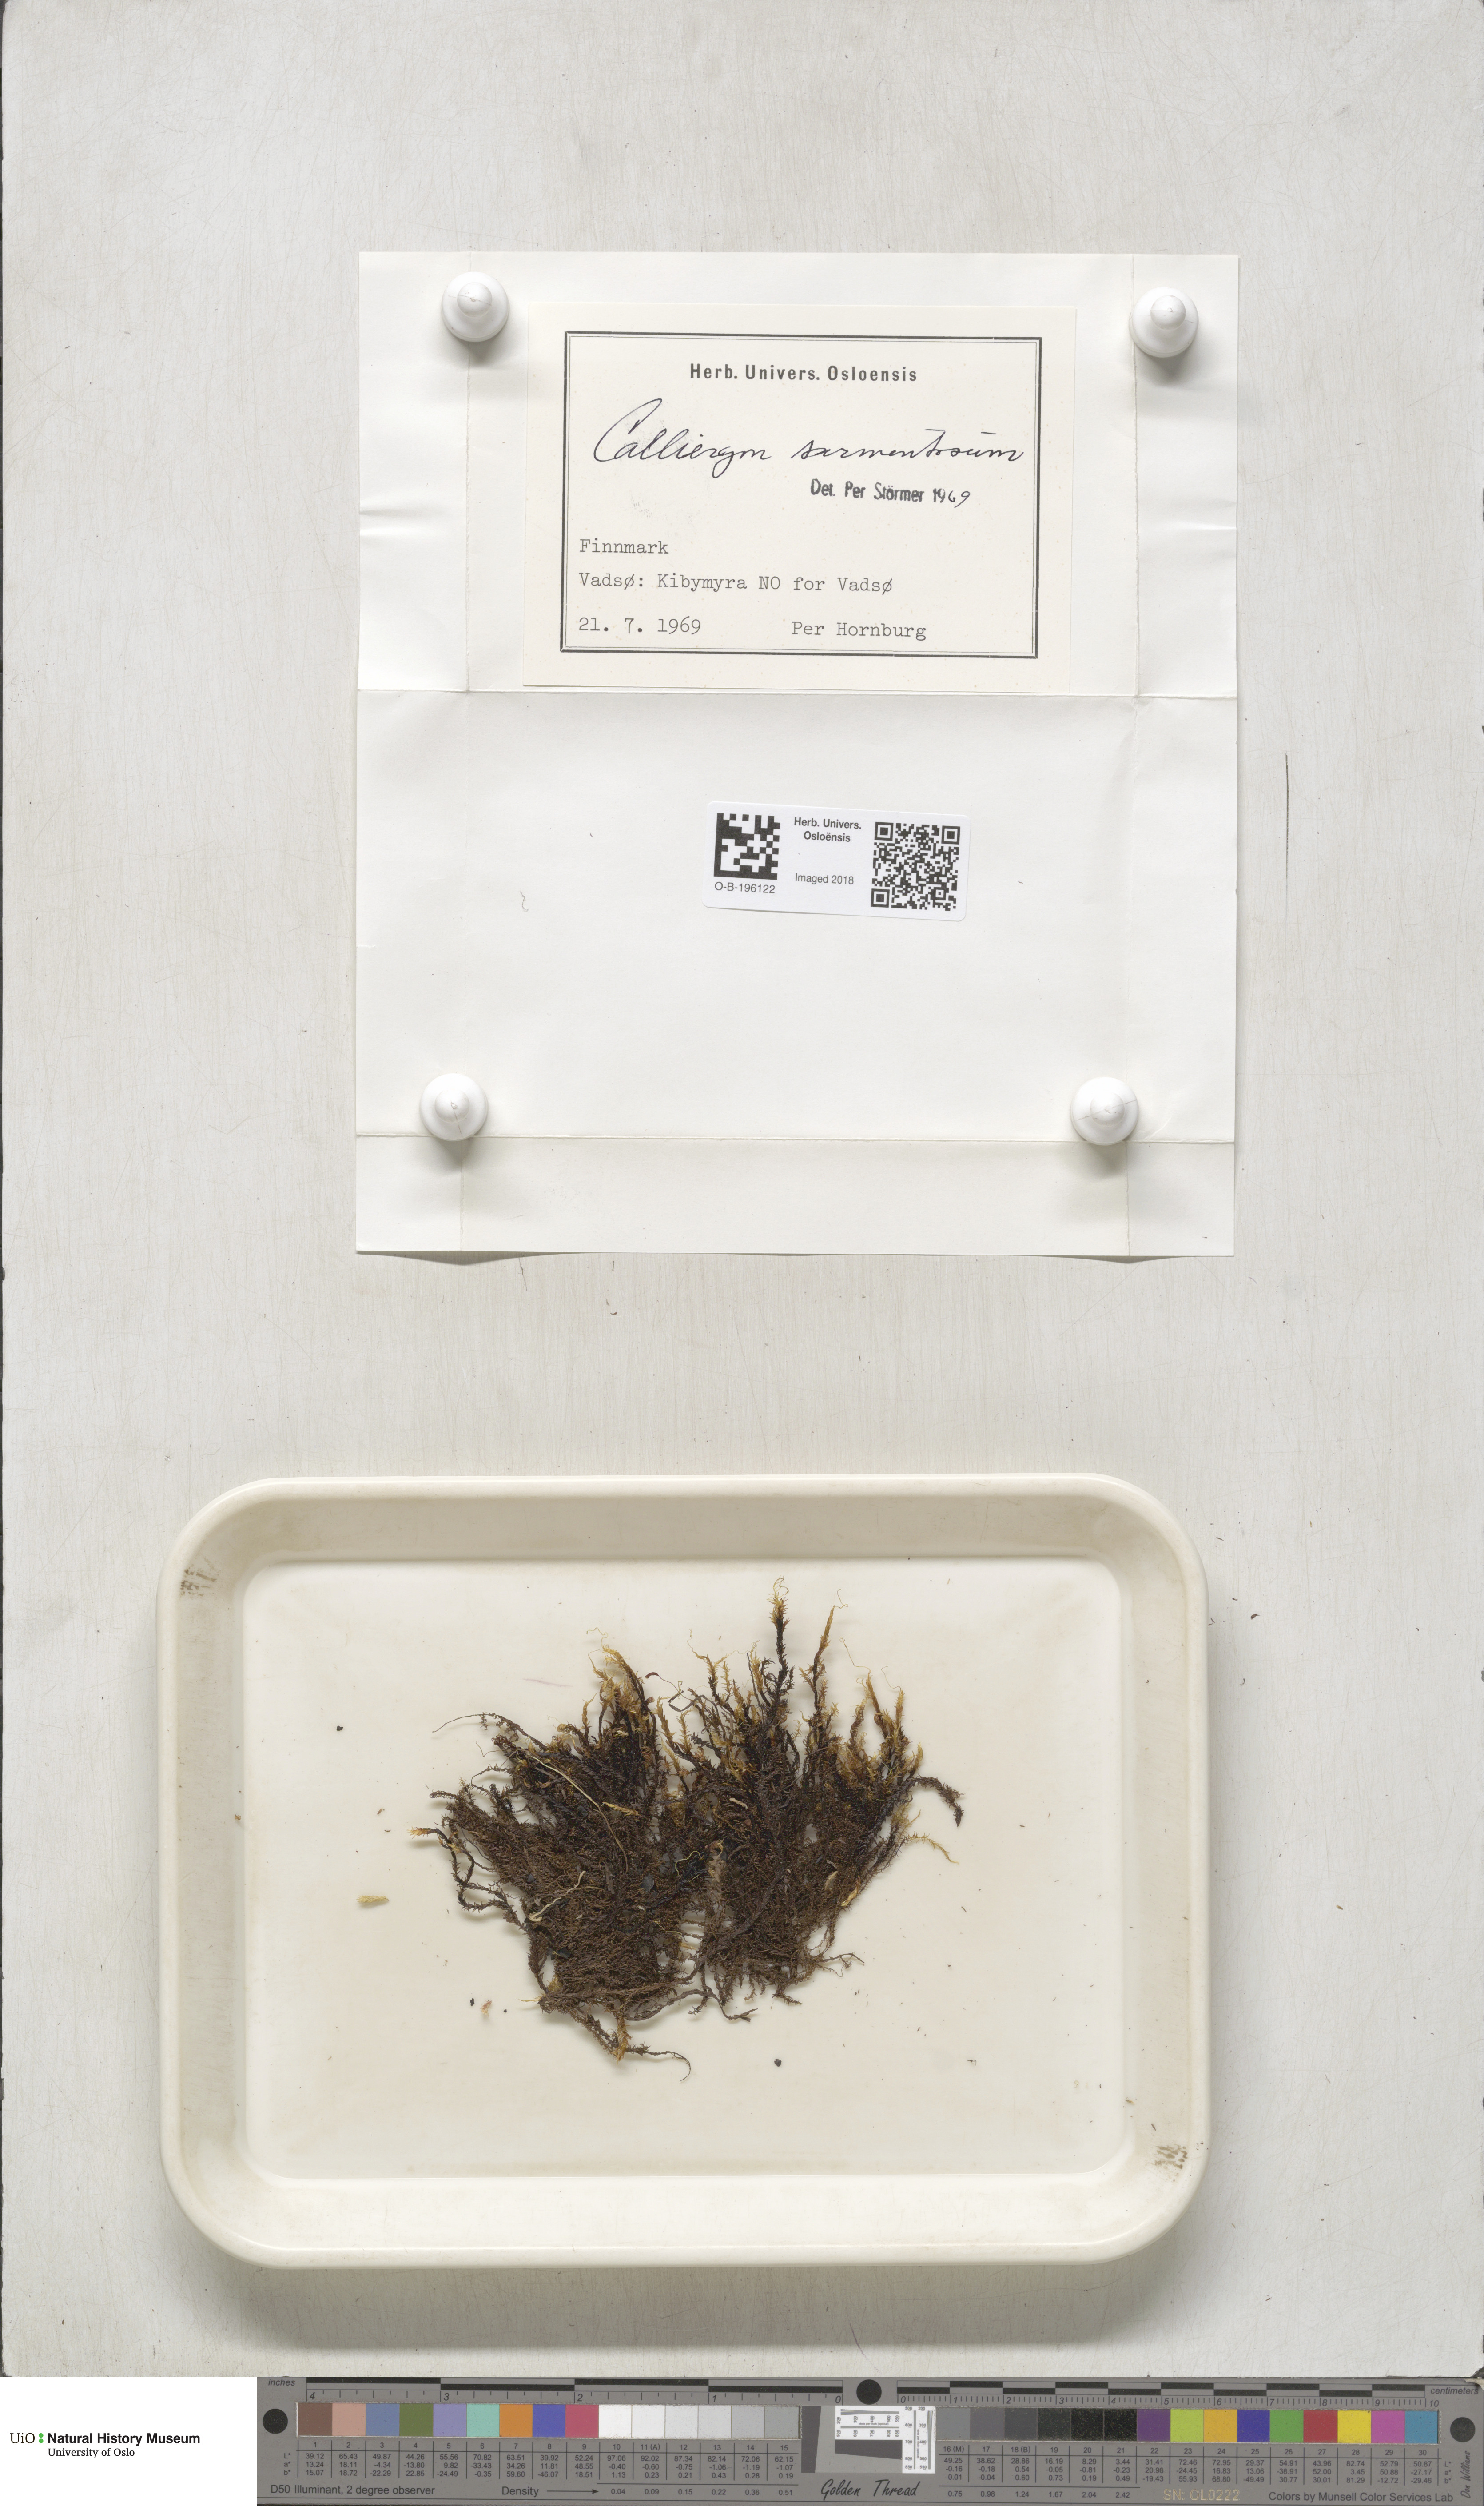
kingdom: Plantae
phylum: Bryophyta
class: Bryopsida
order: Hypnales
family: Calliergonaceae
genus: Sarmentypnum
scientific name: Sarmentypnum sarmentosum
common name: Twiggy spoon moss
